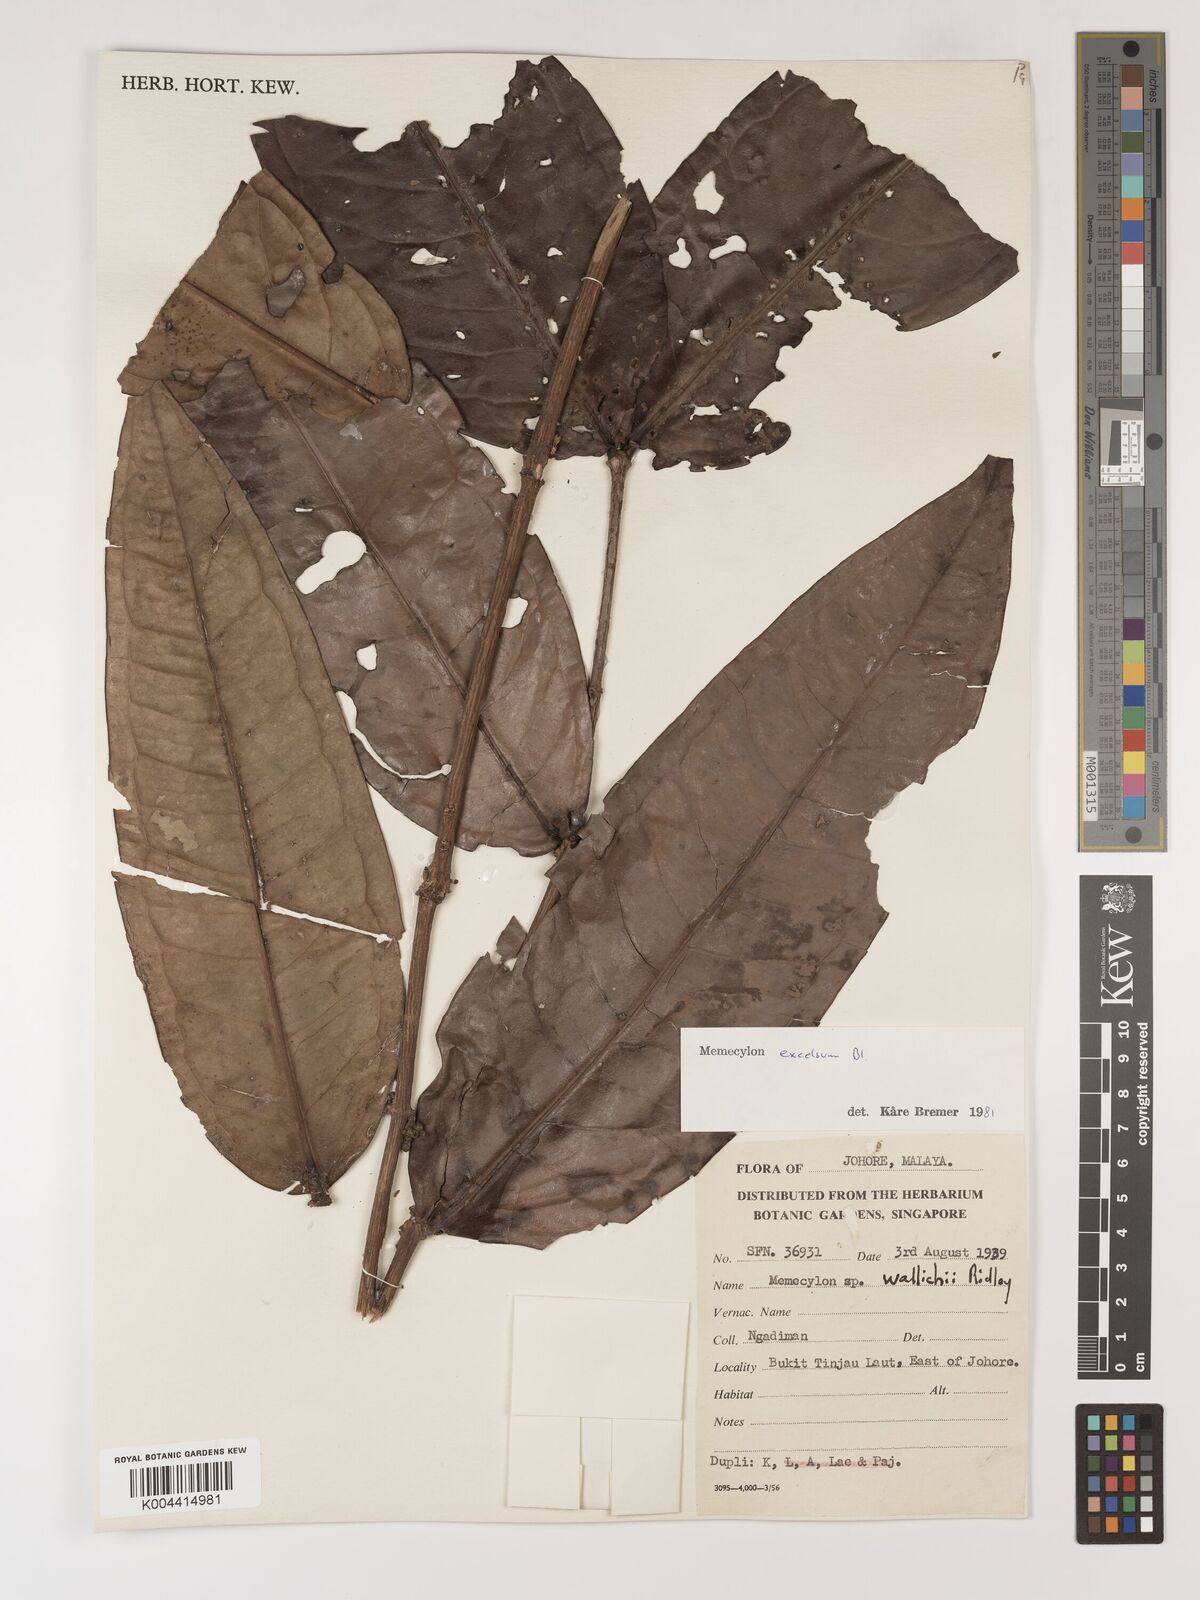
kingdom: Plantae
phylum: Tracheophyta
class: Magnoliopsida
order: Myrtales
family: Melastomataceae
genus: Memecylon
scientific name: Memecylon excelsum
